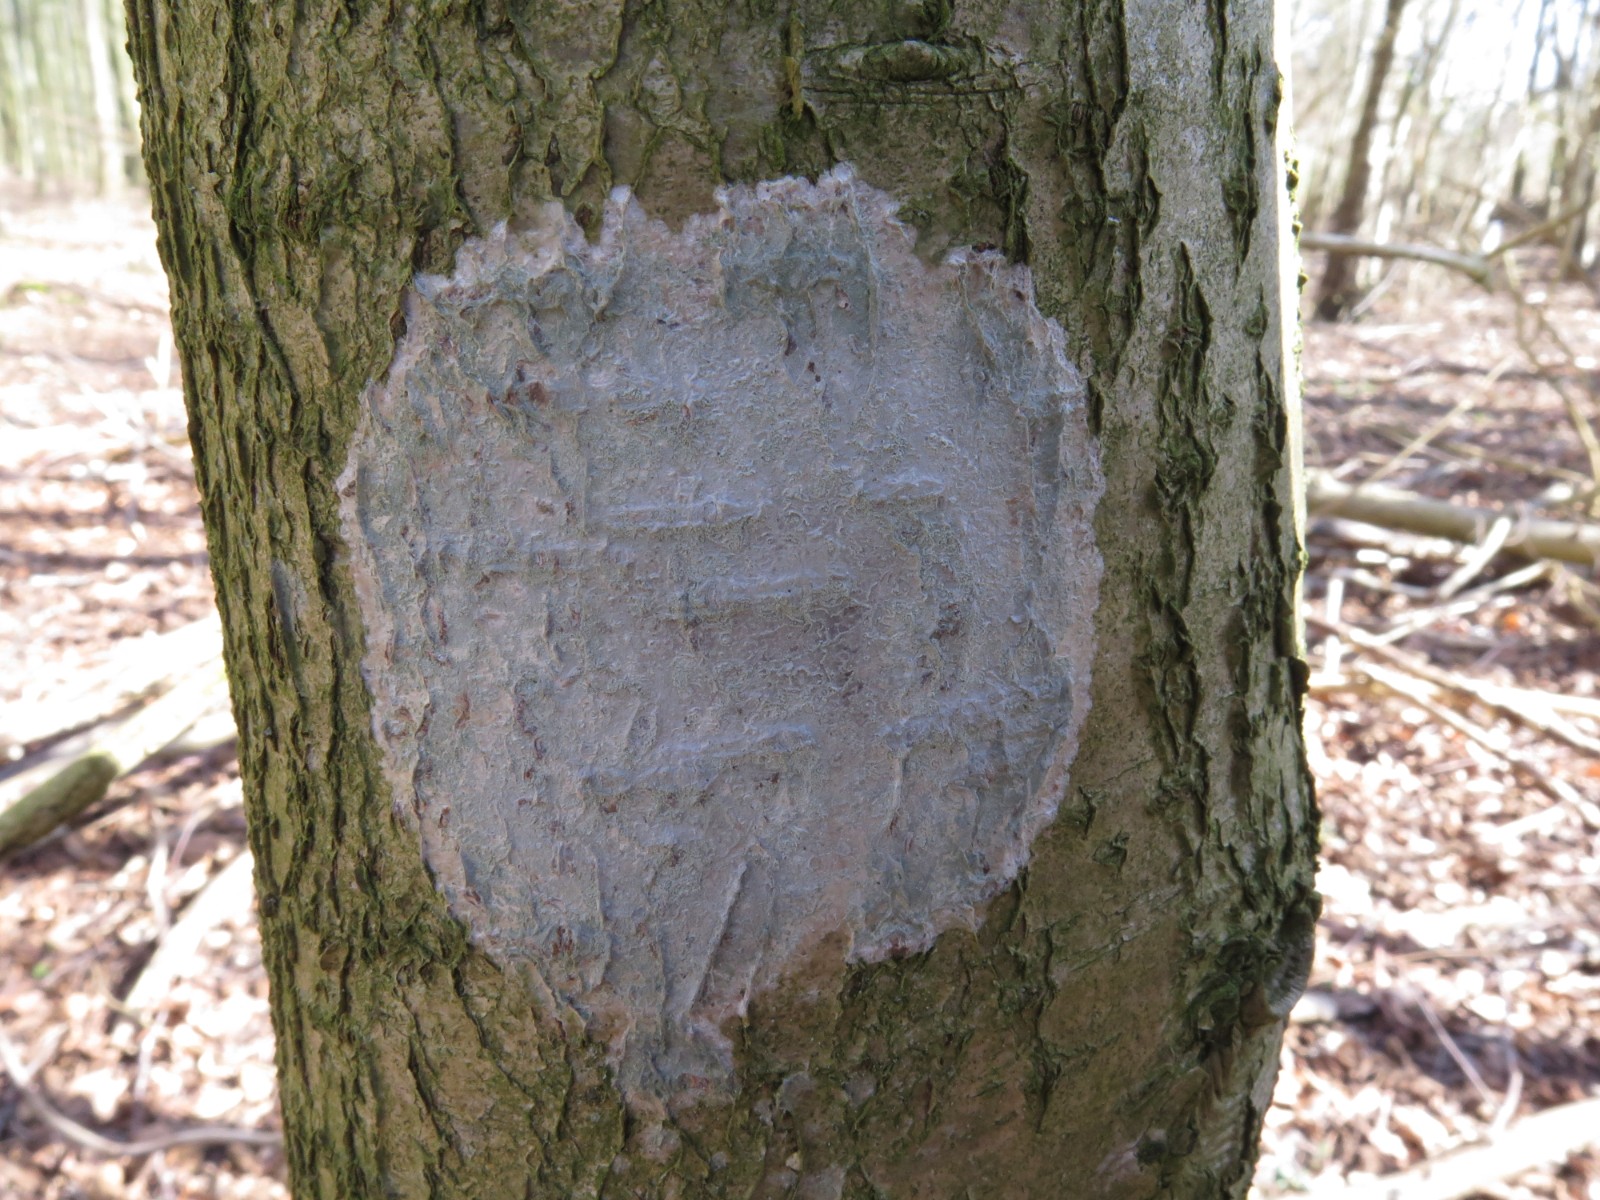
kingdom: Fungi
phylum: Ascomycota
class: Lecanoromycetes
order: Ostropales
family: Phlyctidaceae
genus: Phlyctis
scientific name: Phlyctis argena
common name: almindelig sølvlav
